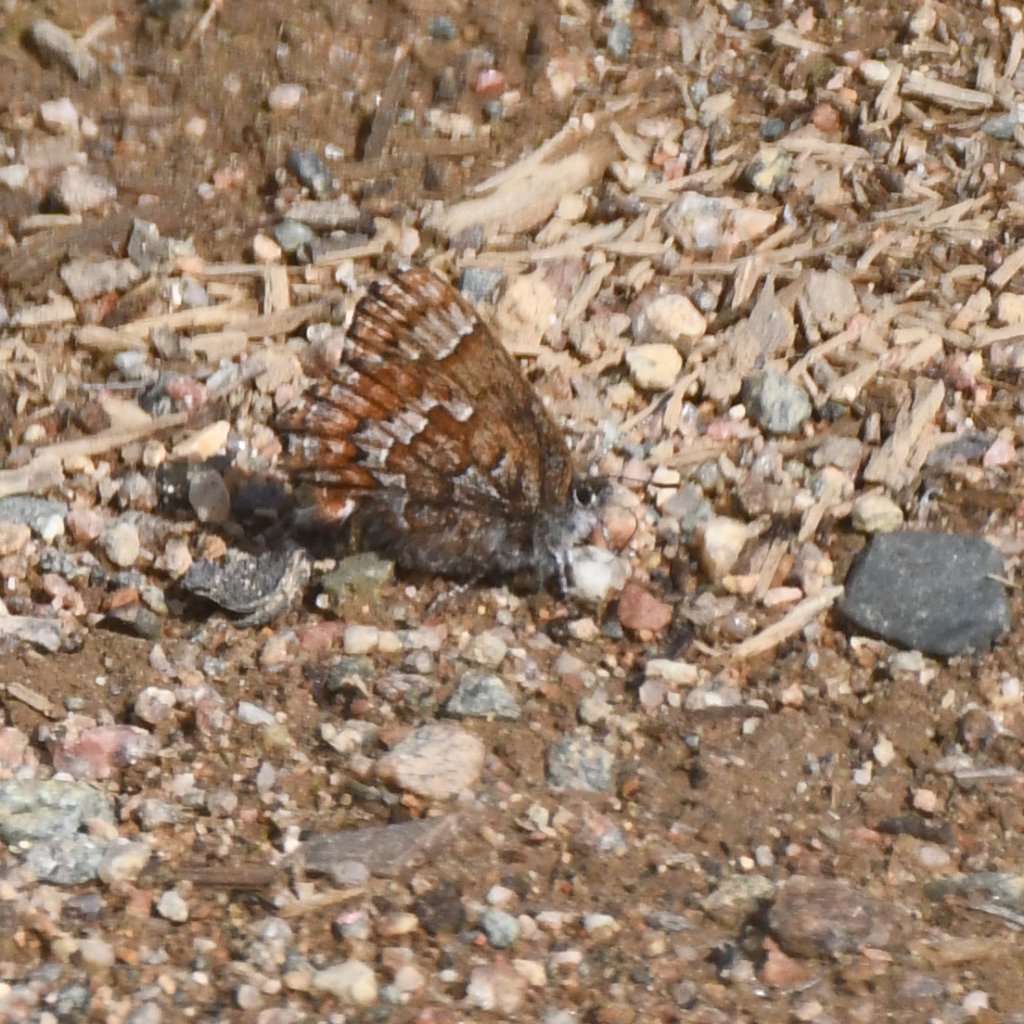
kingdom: Animalia
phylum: Arthropoda
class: Insecta
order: Lepidoptera
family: Lycaenidae
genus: Incisalia
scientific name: Incisalia niphon
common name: Eastern Pine Elfin
